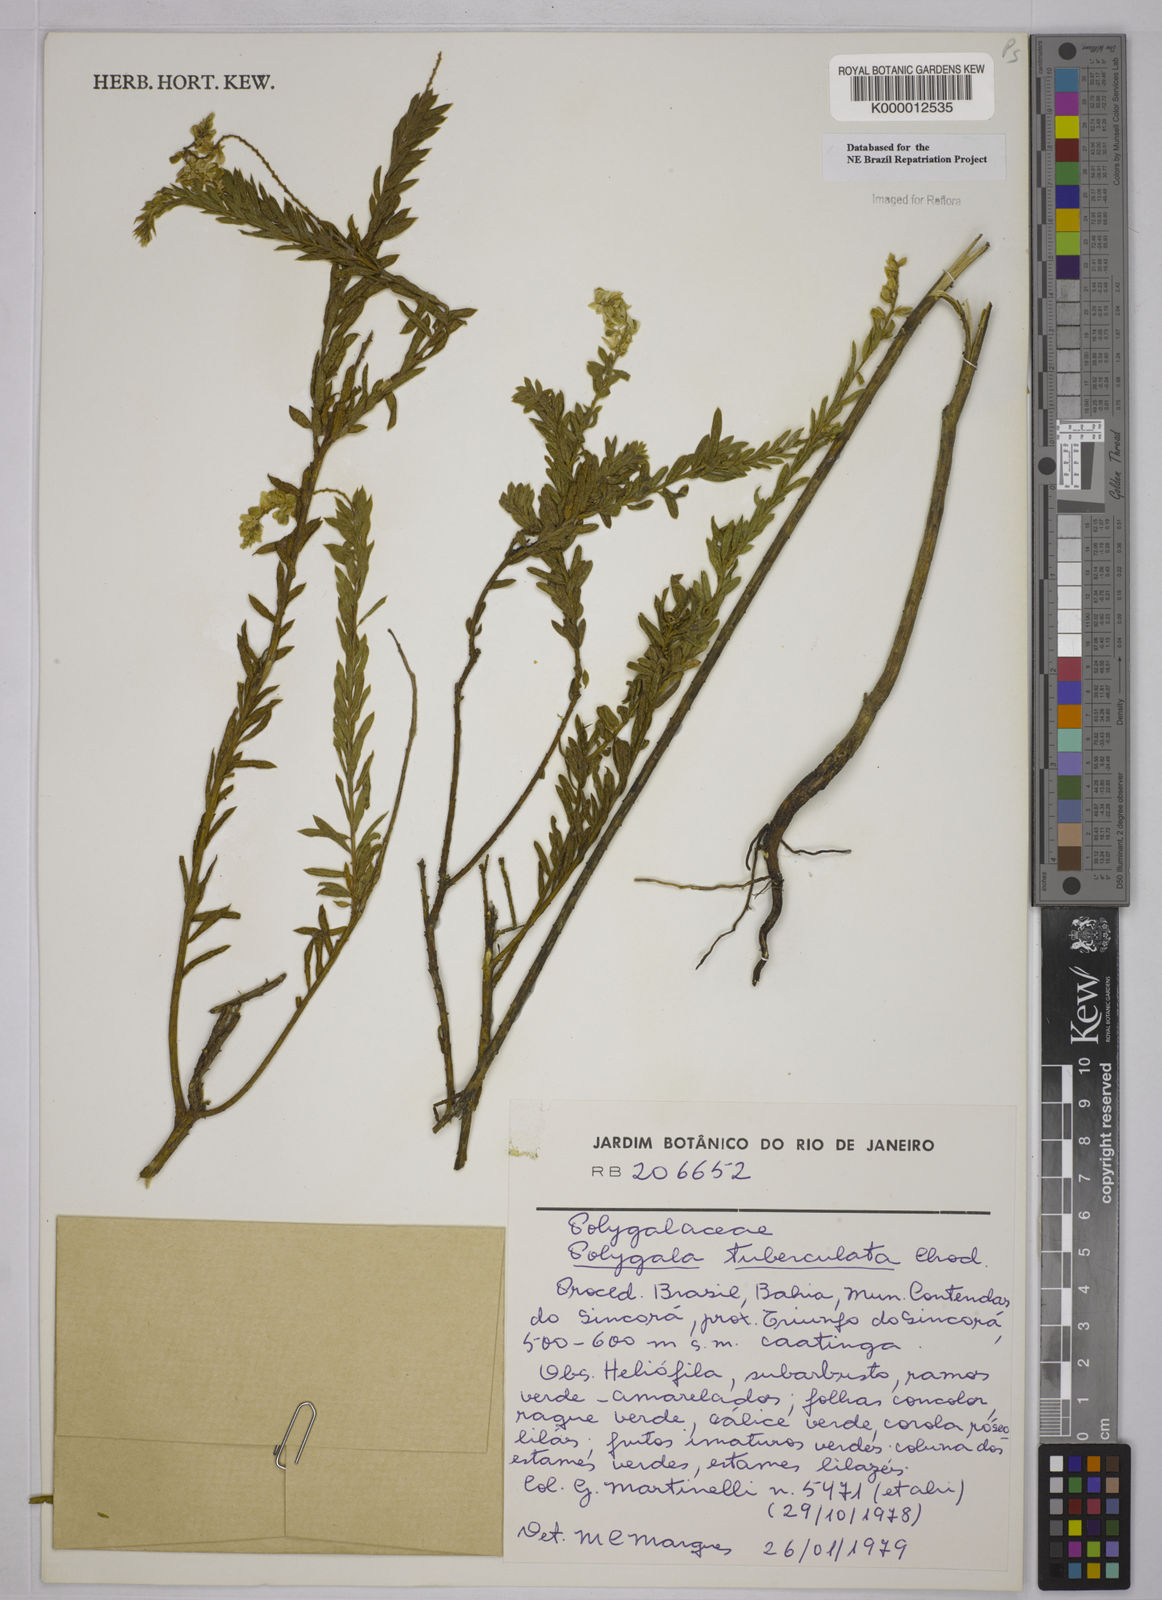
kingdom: Plantae
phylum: Tracheophyta
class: Magnoliopsida
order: Fabales
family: Polygalaceae
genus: Polygala
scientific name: Polygala tuberculata
